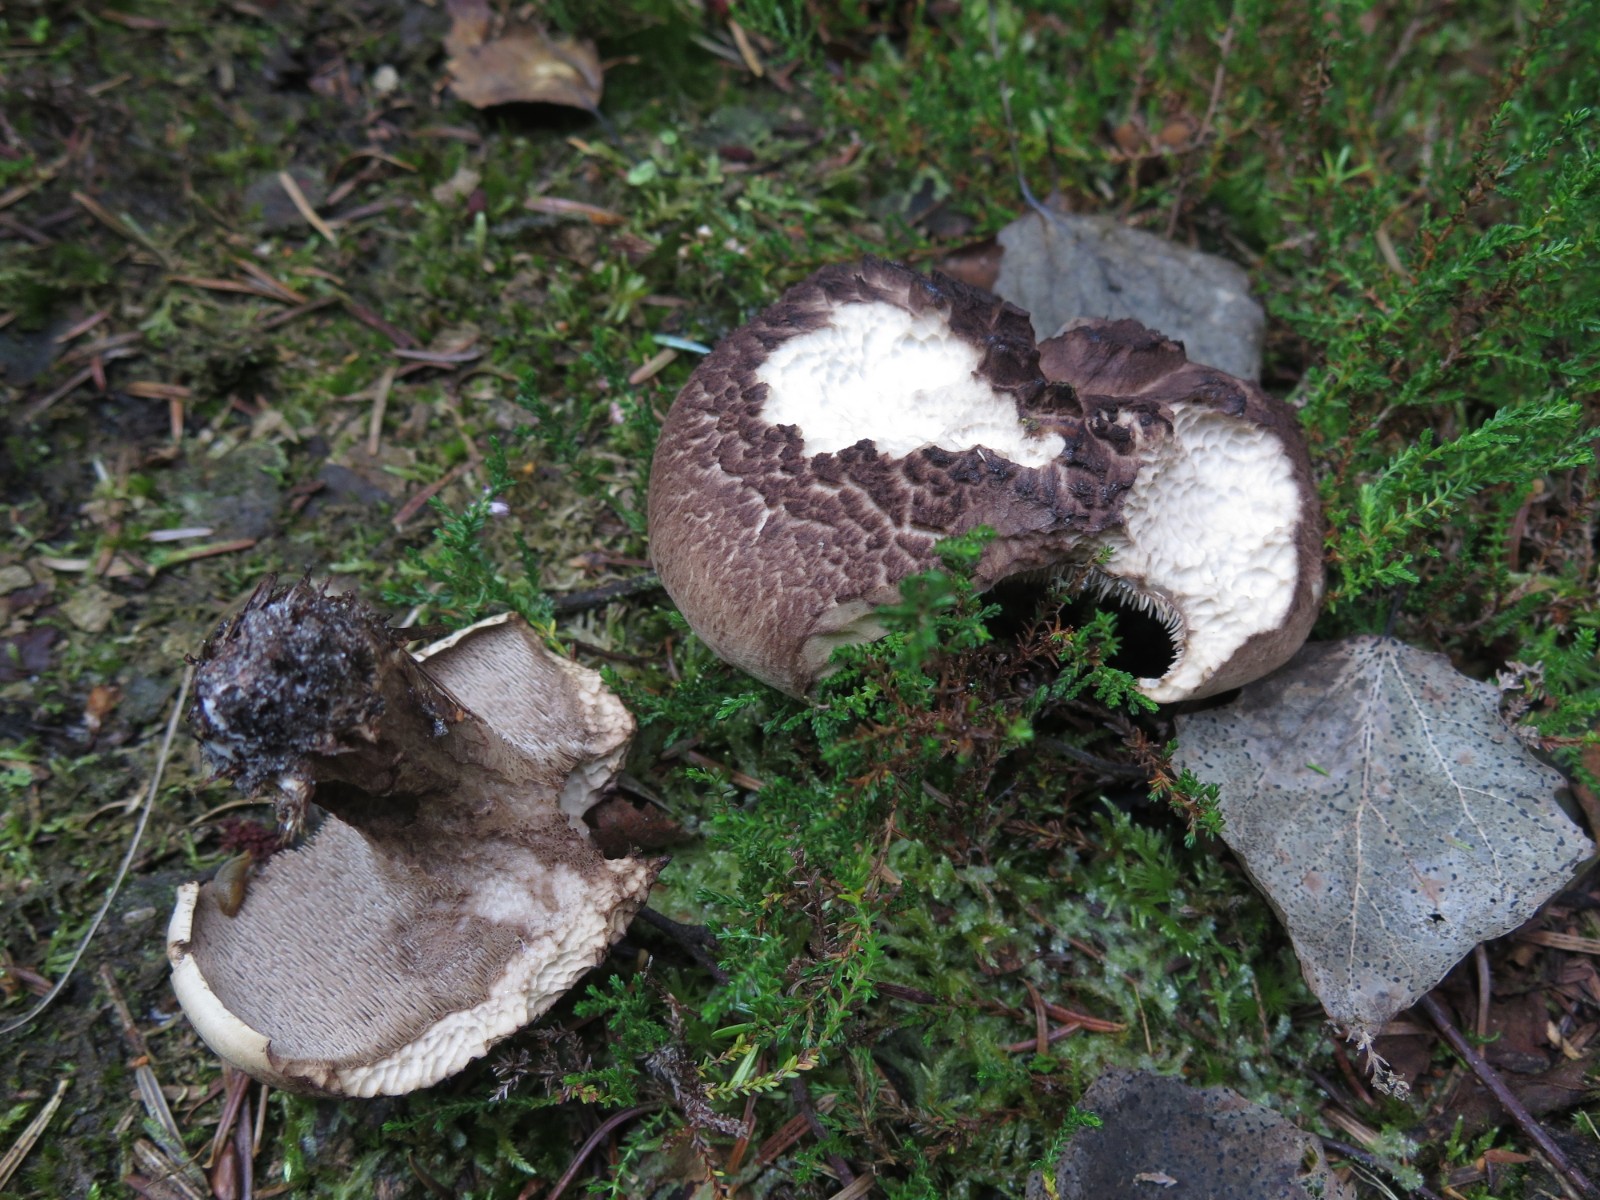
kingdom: Fungi
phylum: Basidiomycota
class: Agaricomycetes
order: Thelephorales
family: Bankeraceae
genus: Sarcodon
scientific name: Sarcodon squamosus
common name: småskællet kødpigsvamp
